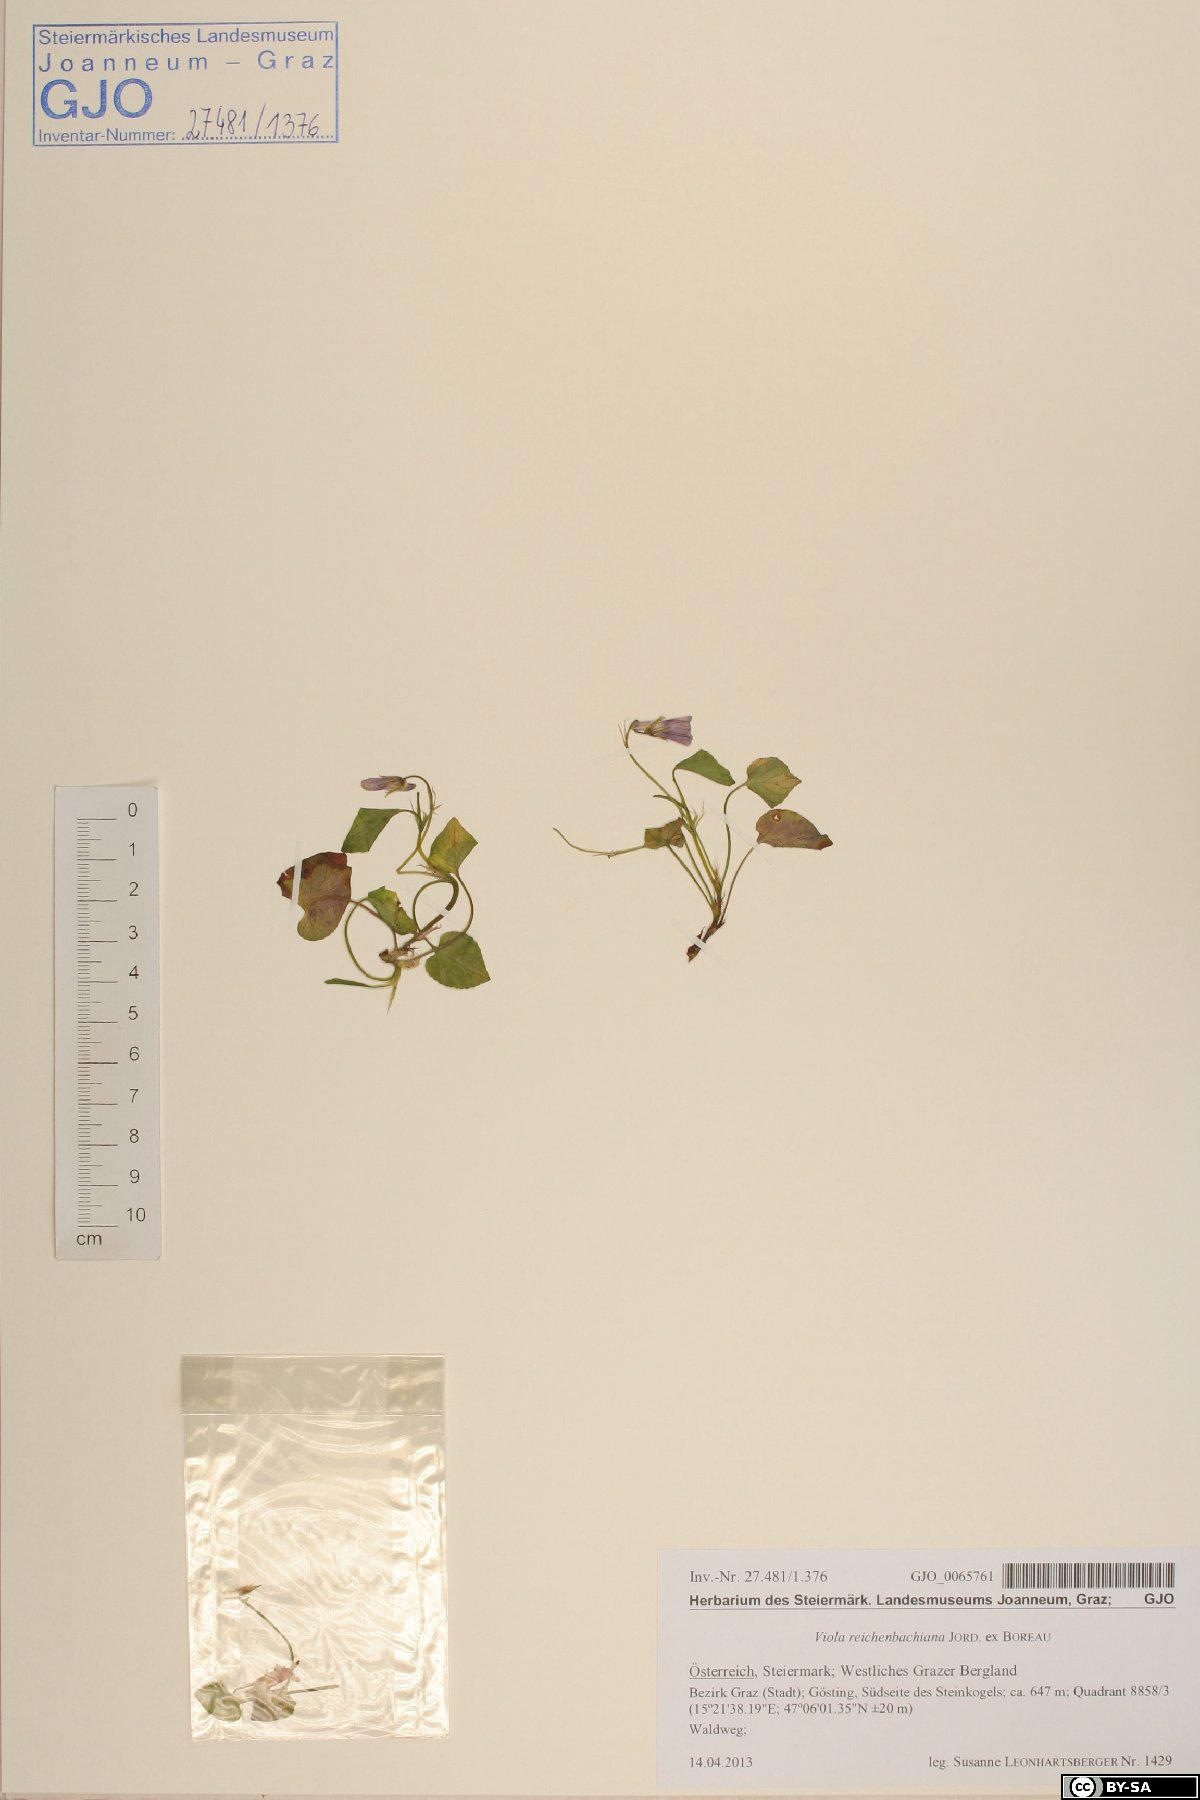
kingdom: Plantae
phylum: Tracheophyta
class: Magnoliopsida
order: Malpighiales
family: Violaceae
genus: Viola
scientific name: Viola reichenbachiana
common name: Early dog-violet
